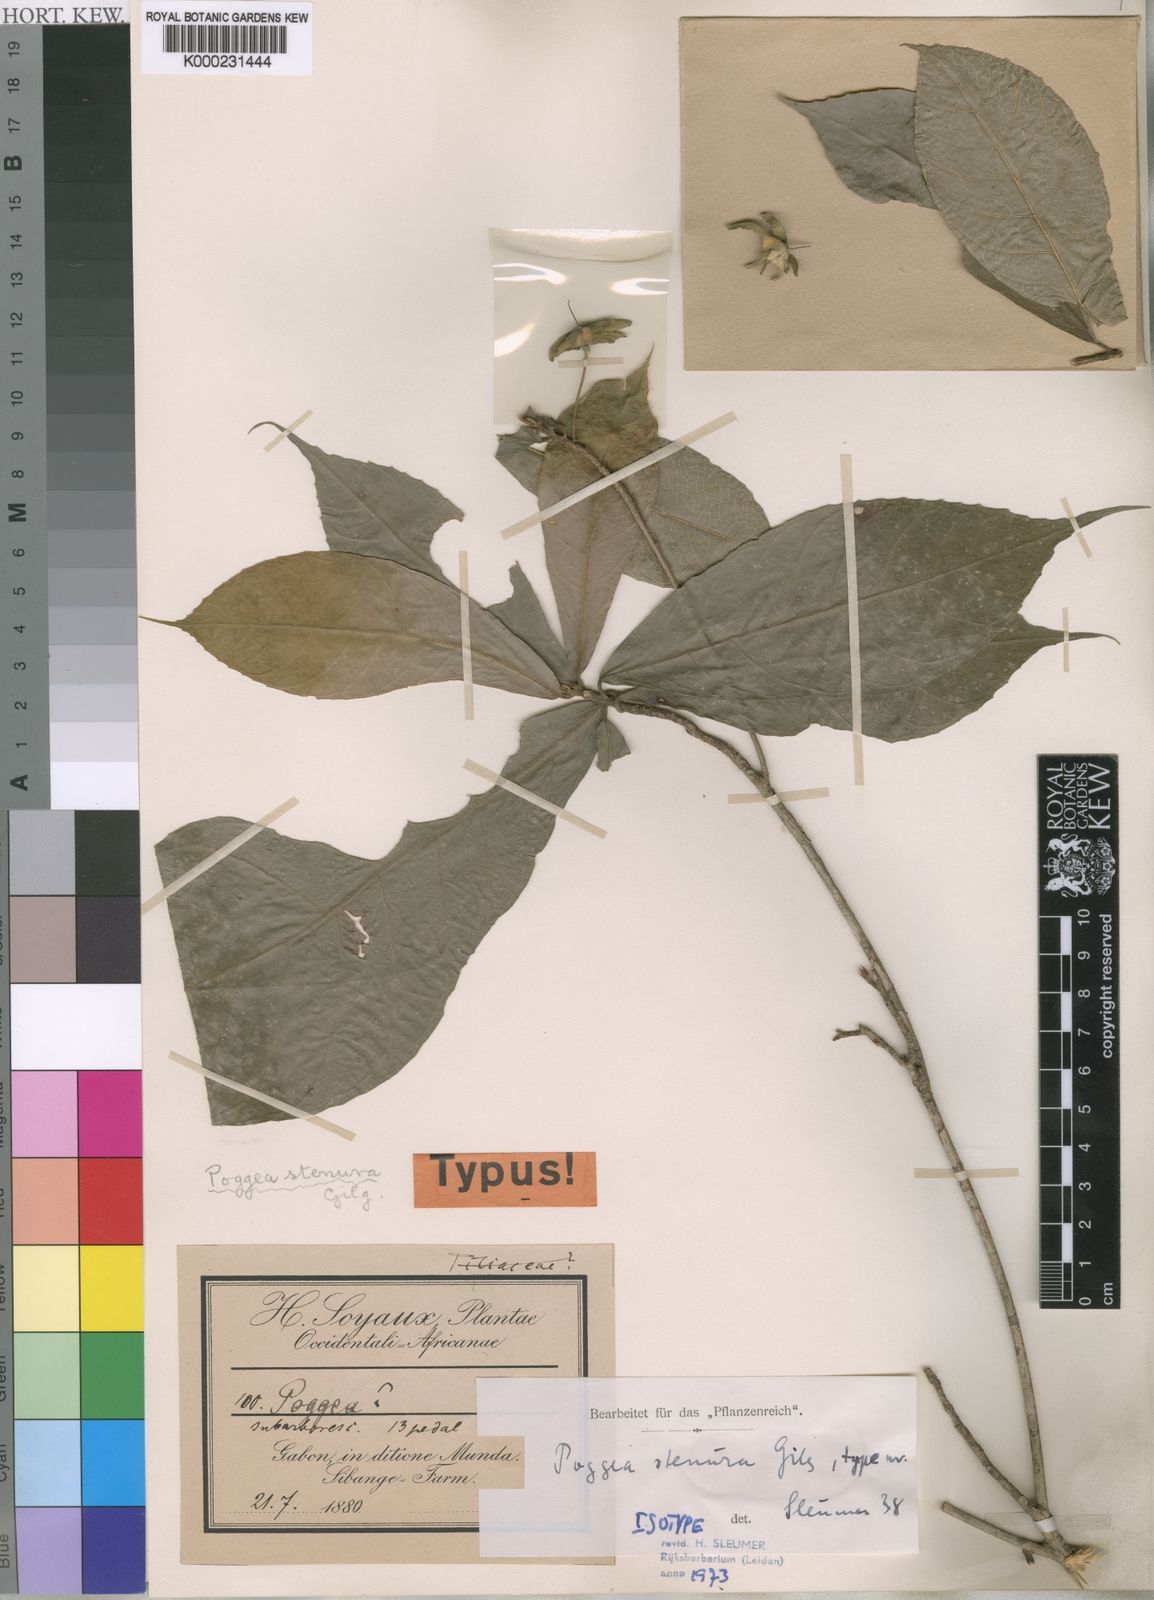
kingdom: Plantae
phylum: Tracheophyta
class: Magnoliopsida
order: Malpighiales
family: Achariaceae
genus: Poggea
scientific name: Poggea alata
